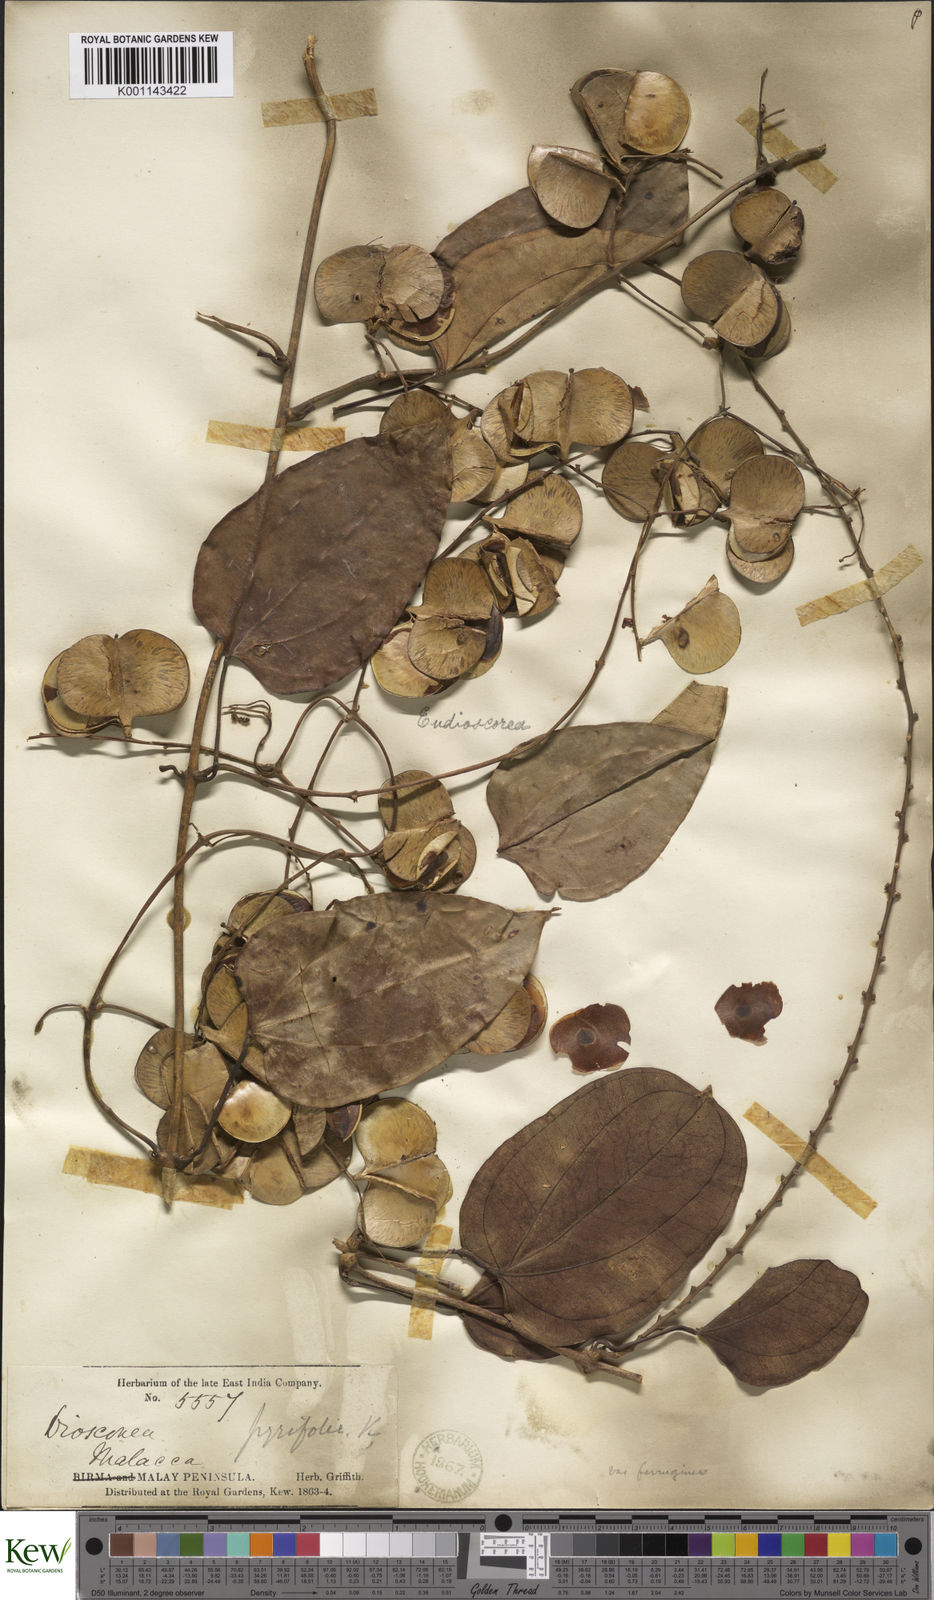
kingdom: Plantae
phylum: Tracheophyta
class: Liliopsida
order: Dioscoreales
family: Dioscoreaceae
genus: Dioscorea
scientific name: Dioscorea pyrifolia
